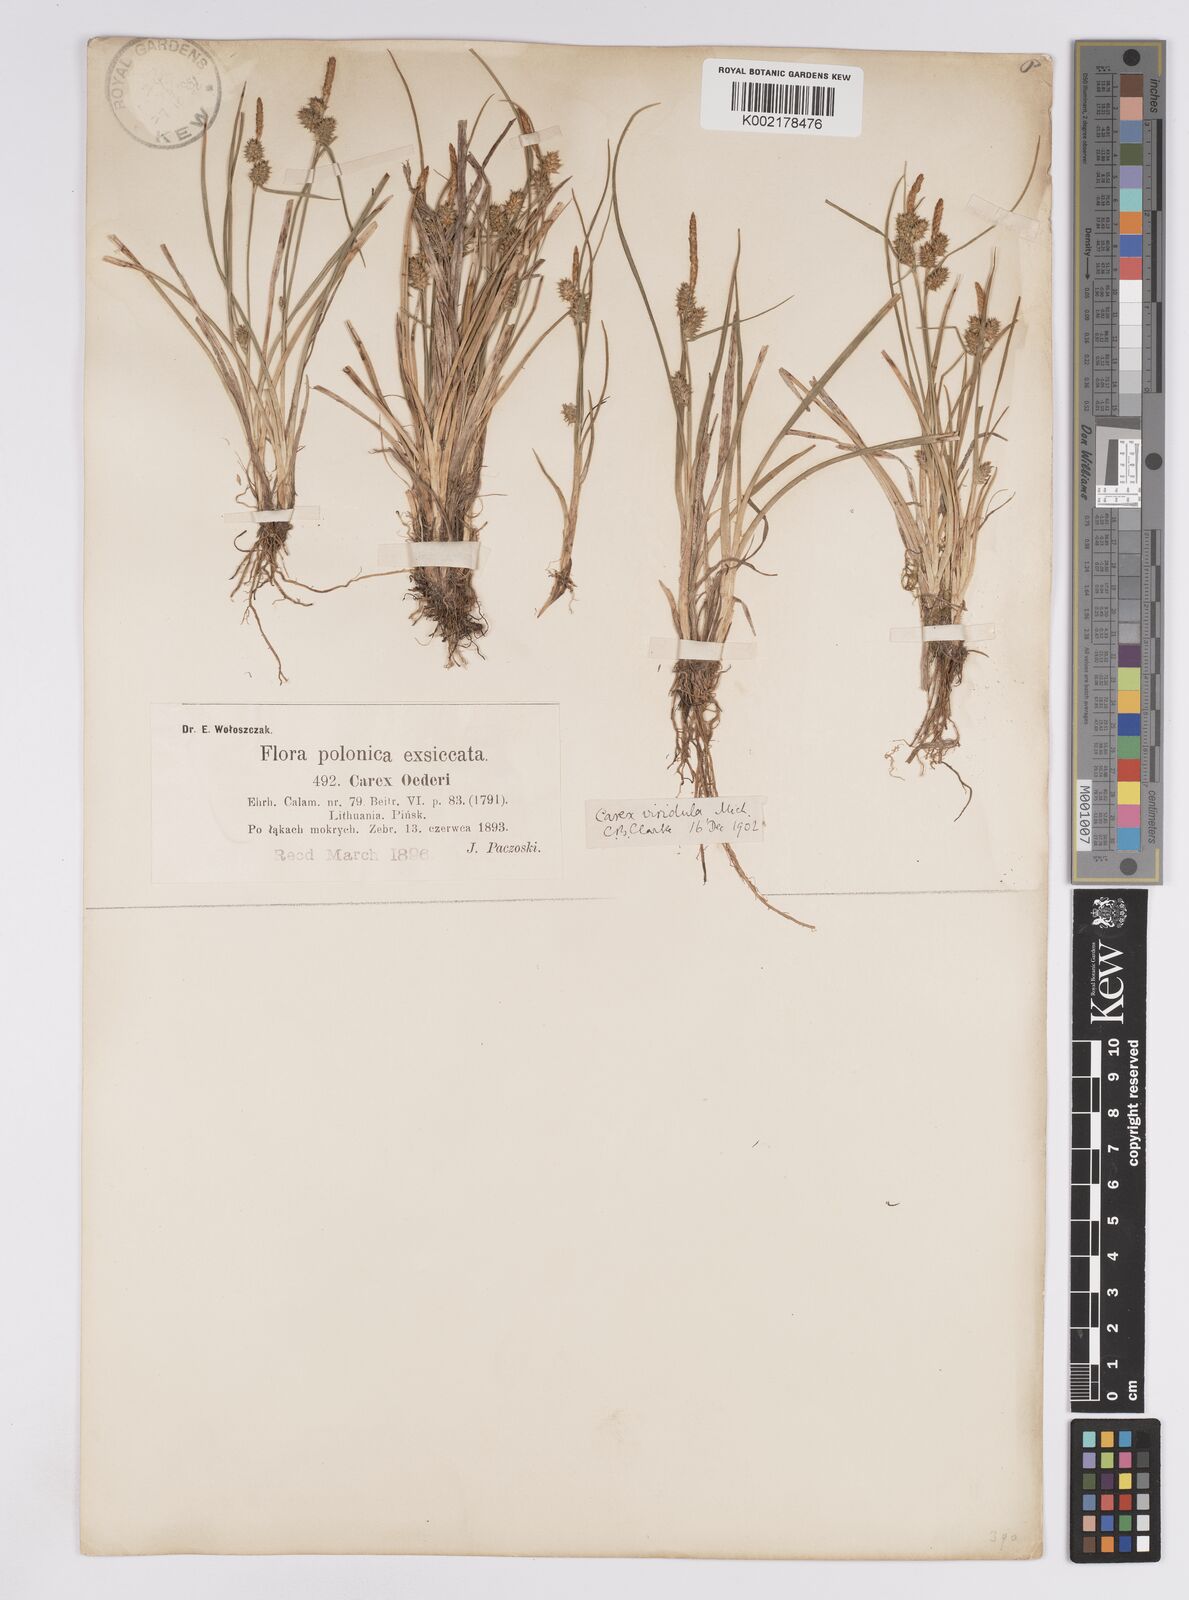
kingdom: Plantae
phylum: Tracheophyta
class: Liliopsida
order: Poales
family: Cyperaceae
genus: Carex
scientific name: Carex demissa
